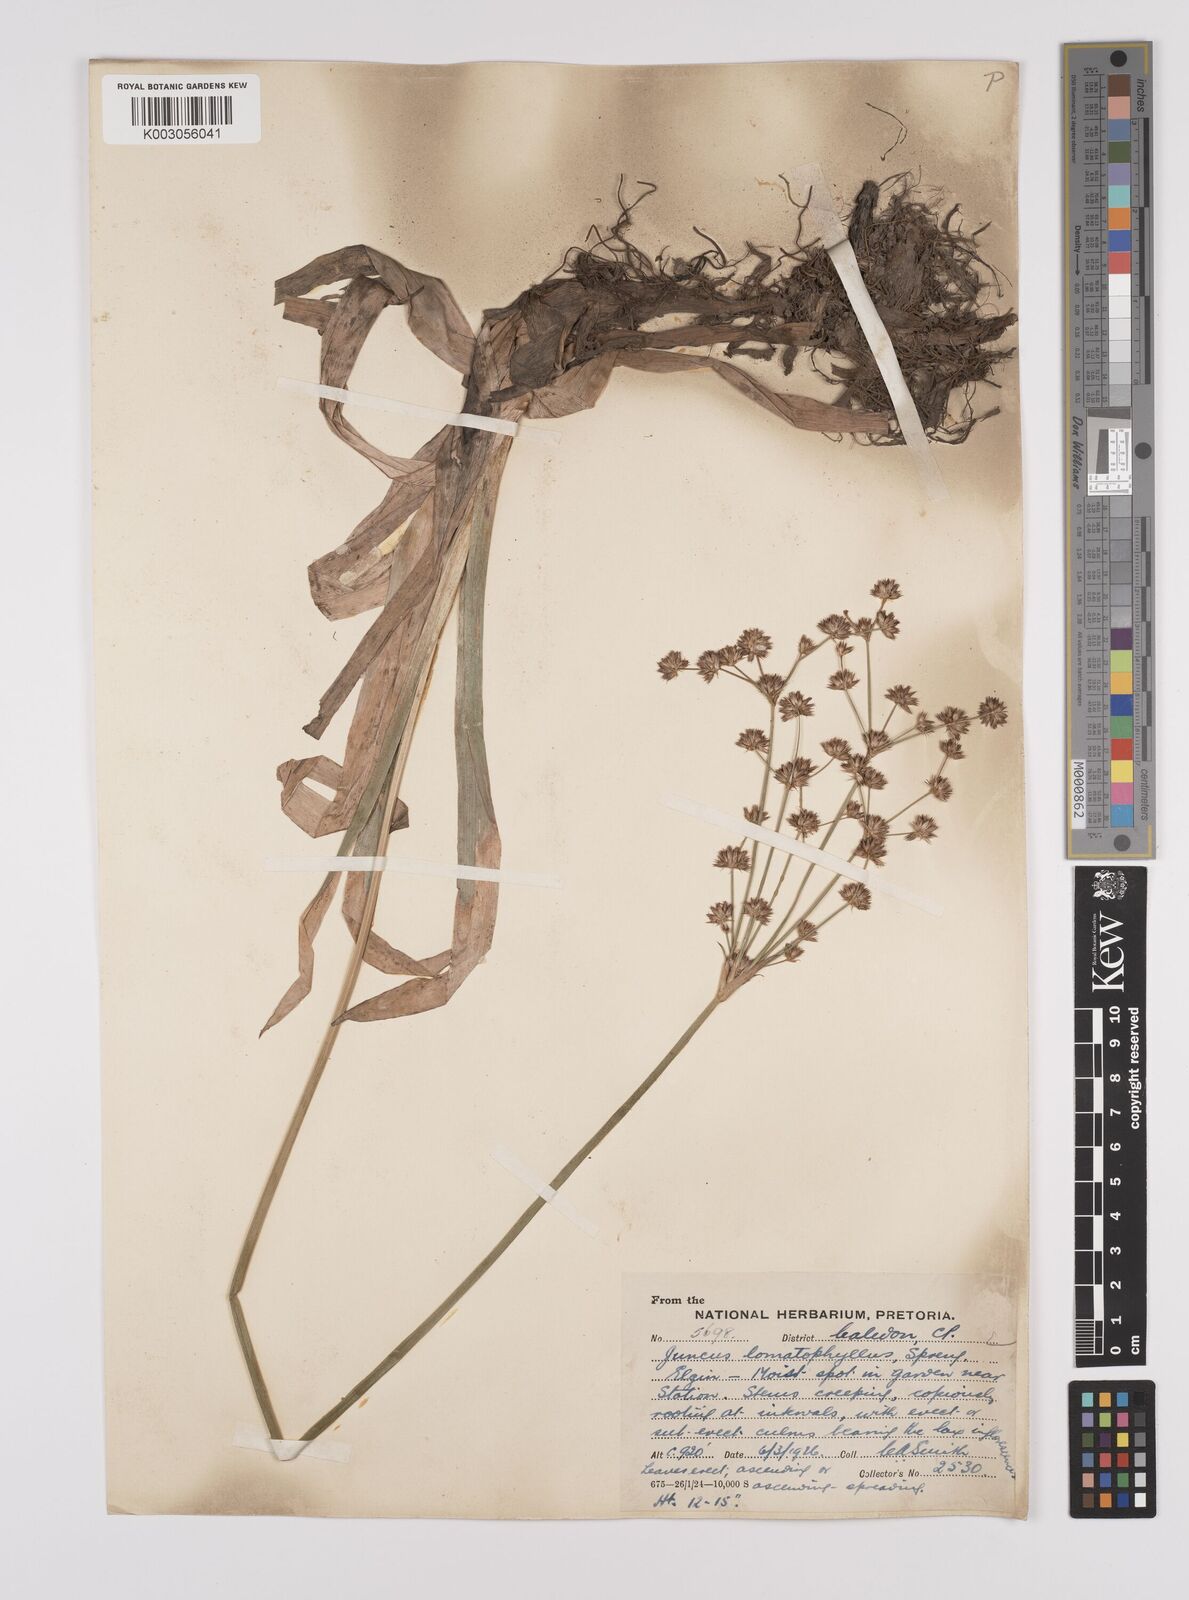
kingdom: Plantae
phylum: Tracheophyta
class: Liliopsida
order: Poales
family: Juncaceae
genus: Juncus
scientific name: Juncus lomatophyllus
